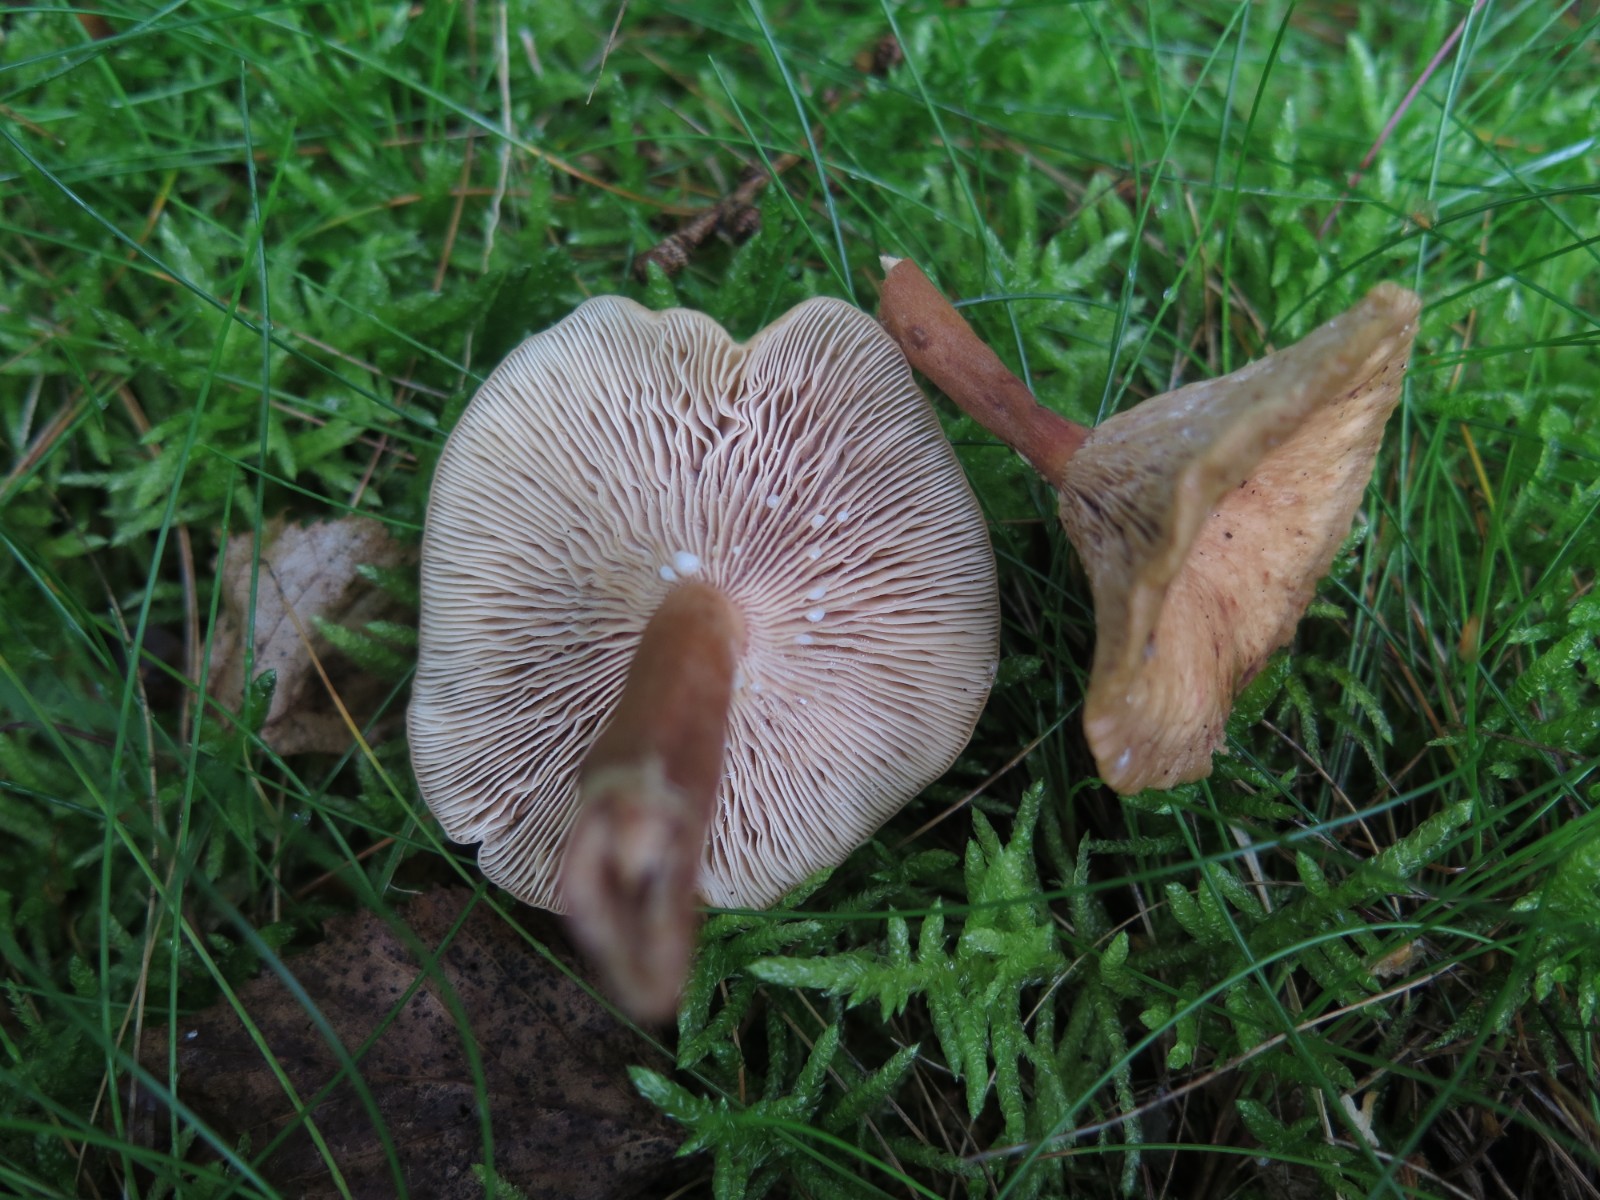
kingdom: Fungi
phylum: Basidiomycota
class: Agaricomycetes
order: Russulales
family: Russulaceae
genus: Lactarius
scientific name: Lactarius rufus
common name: rødbrun mælkehat
